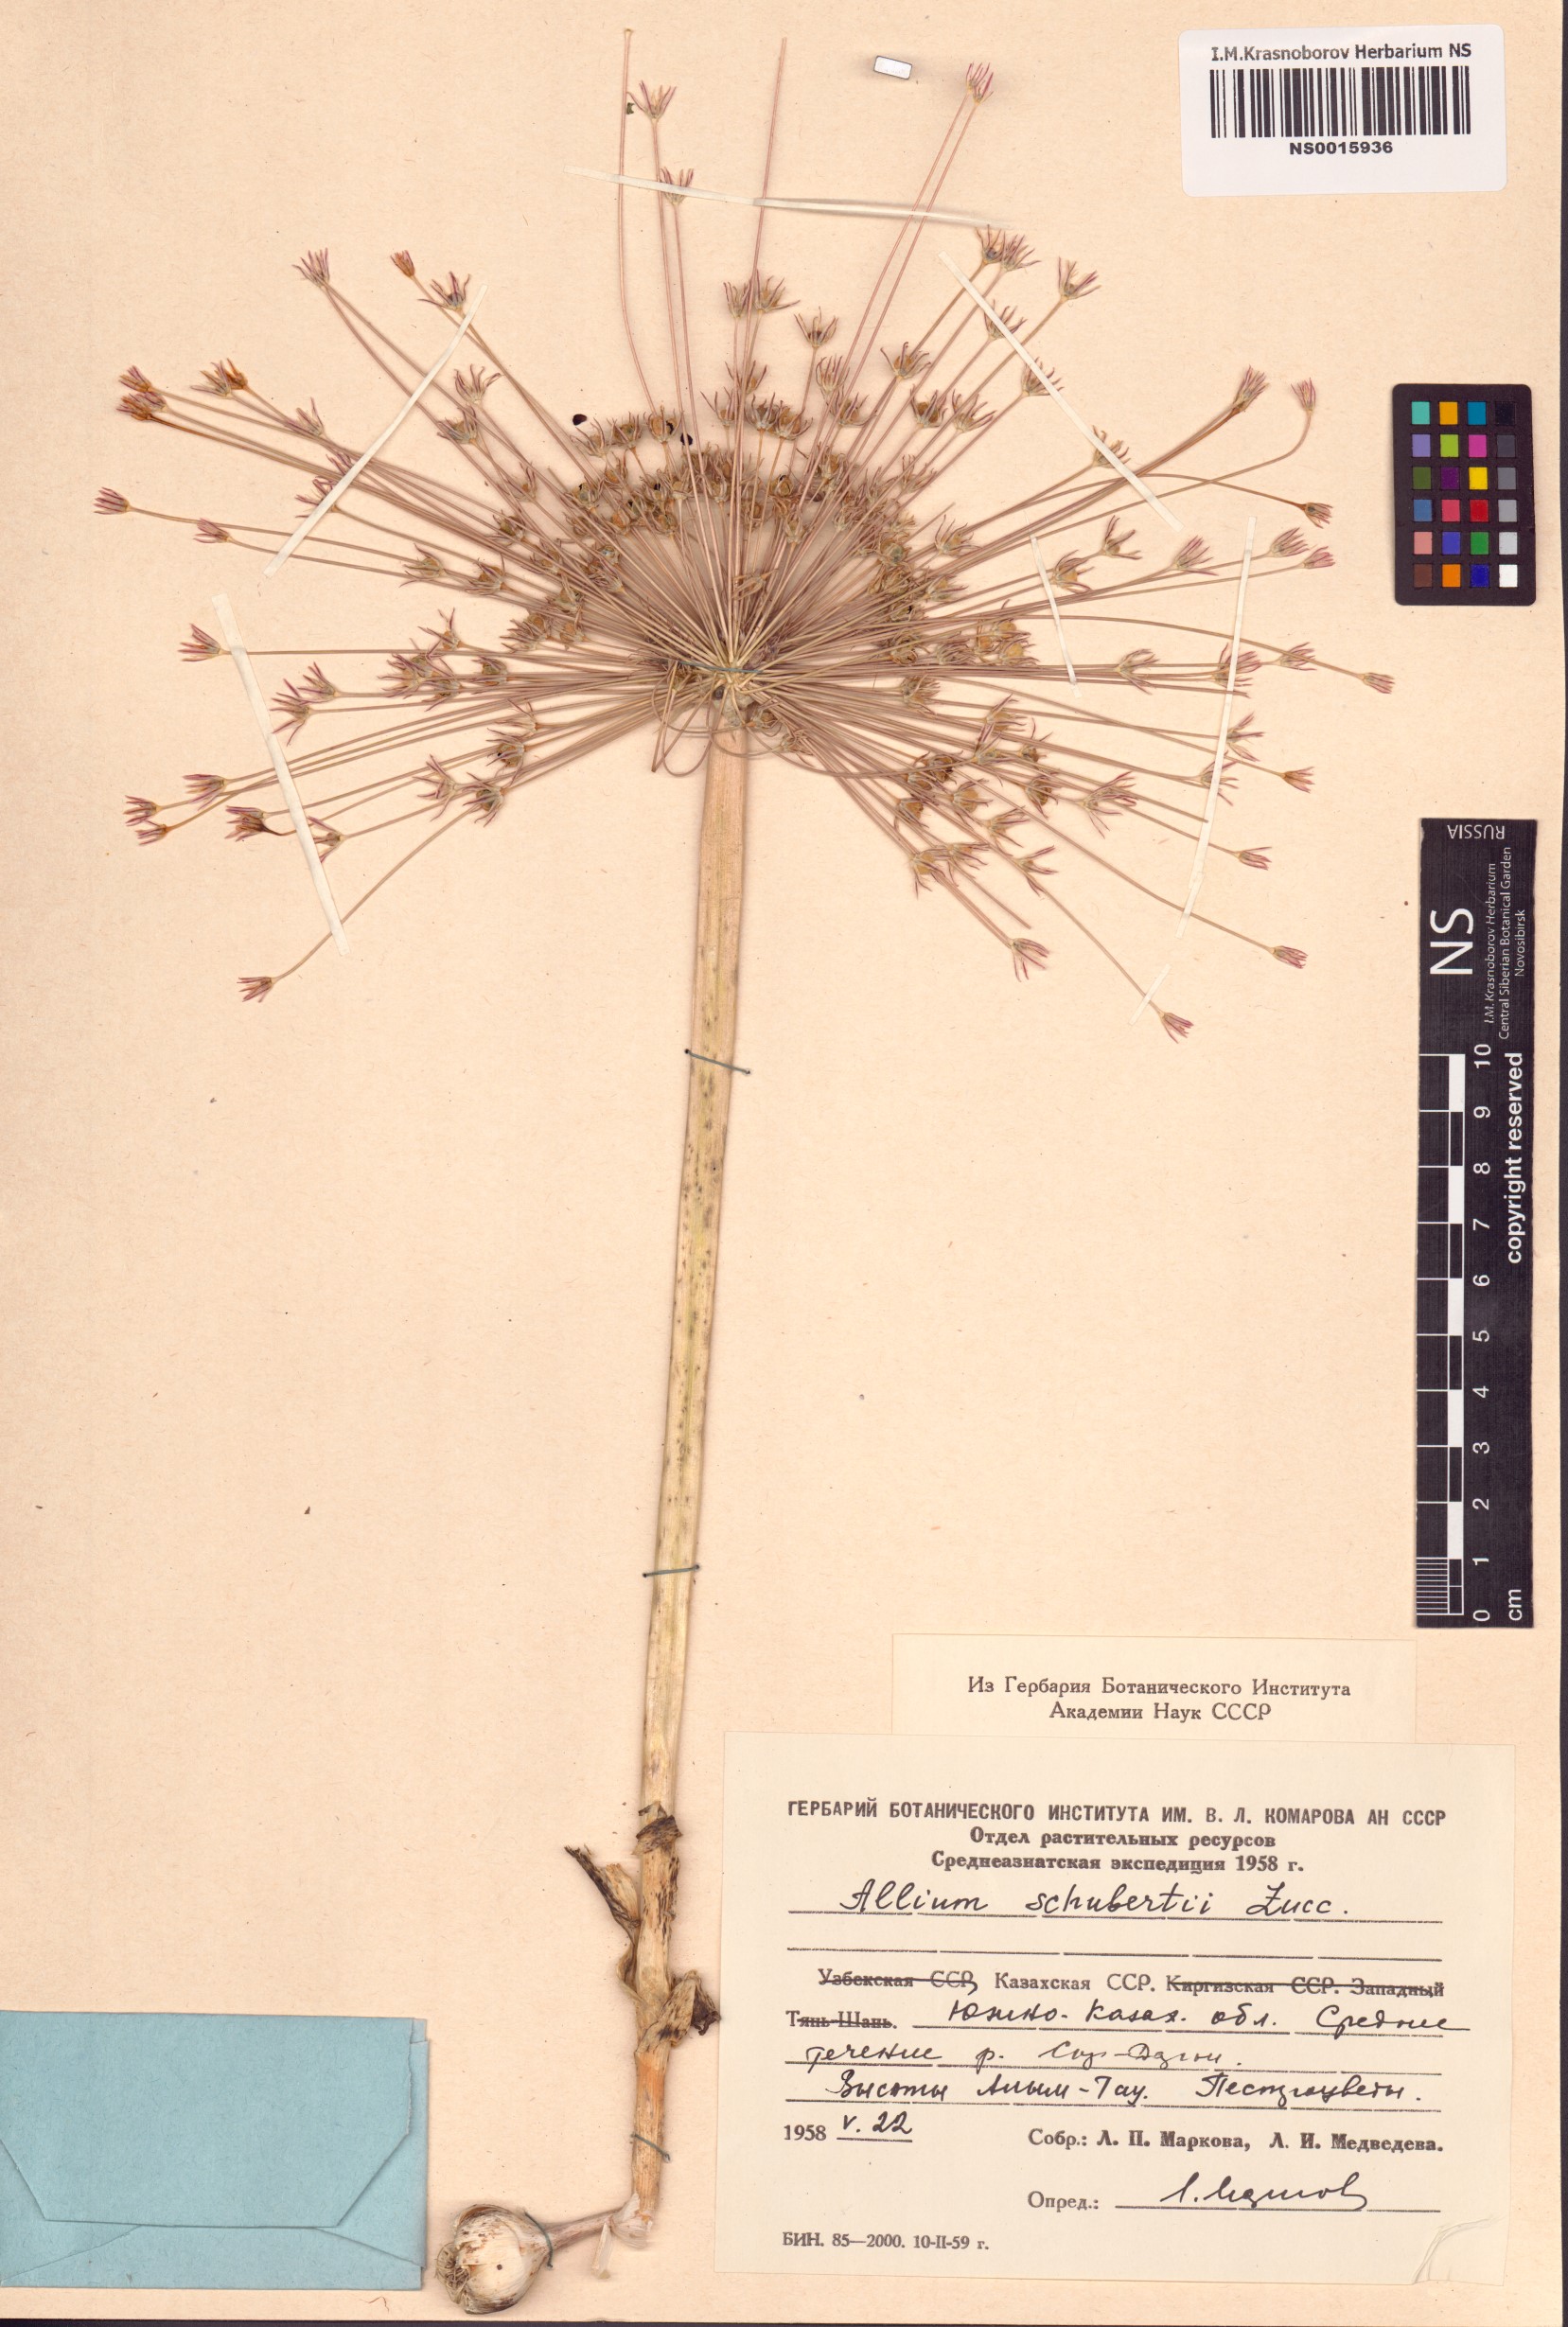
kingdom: Plantae
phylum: Tracheophyta
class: Liliopsida
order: Asparagales
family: Amaryllidaceae
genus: Allium
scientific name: Allium schubertii
